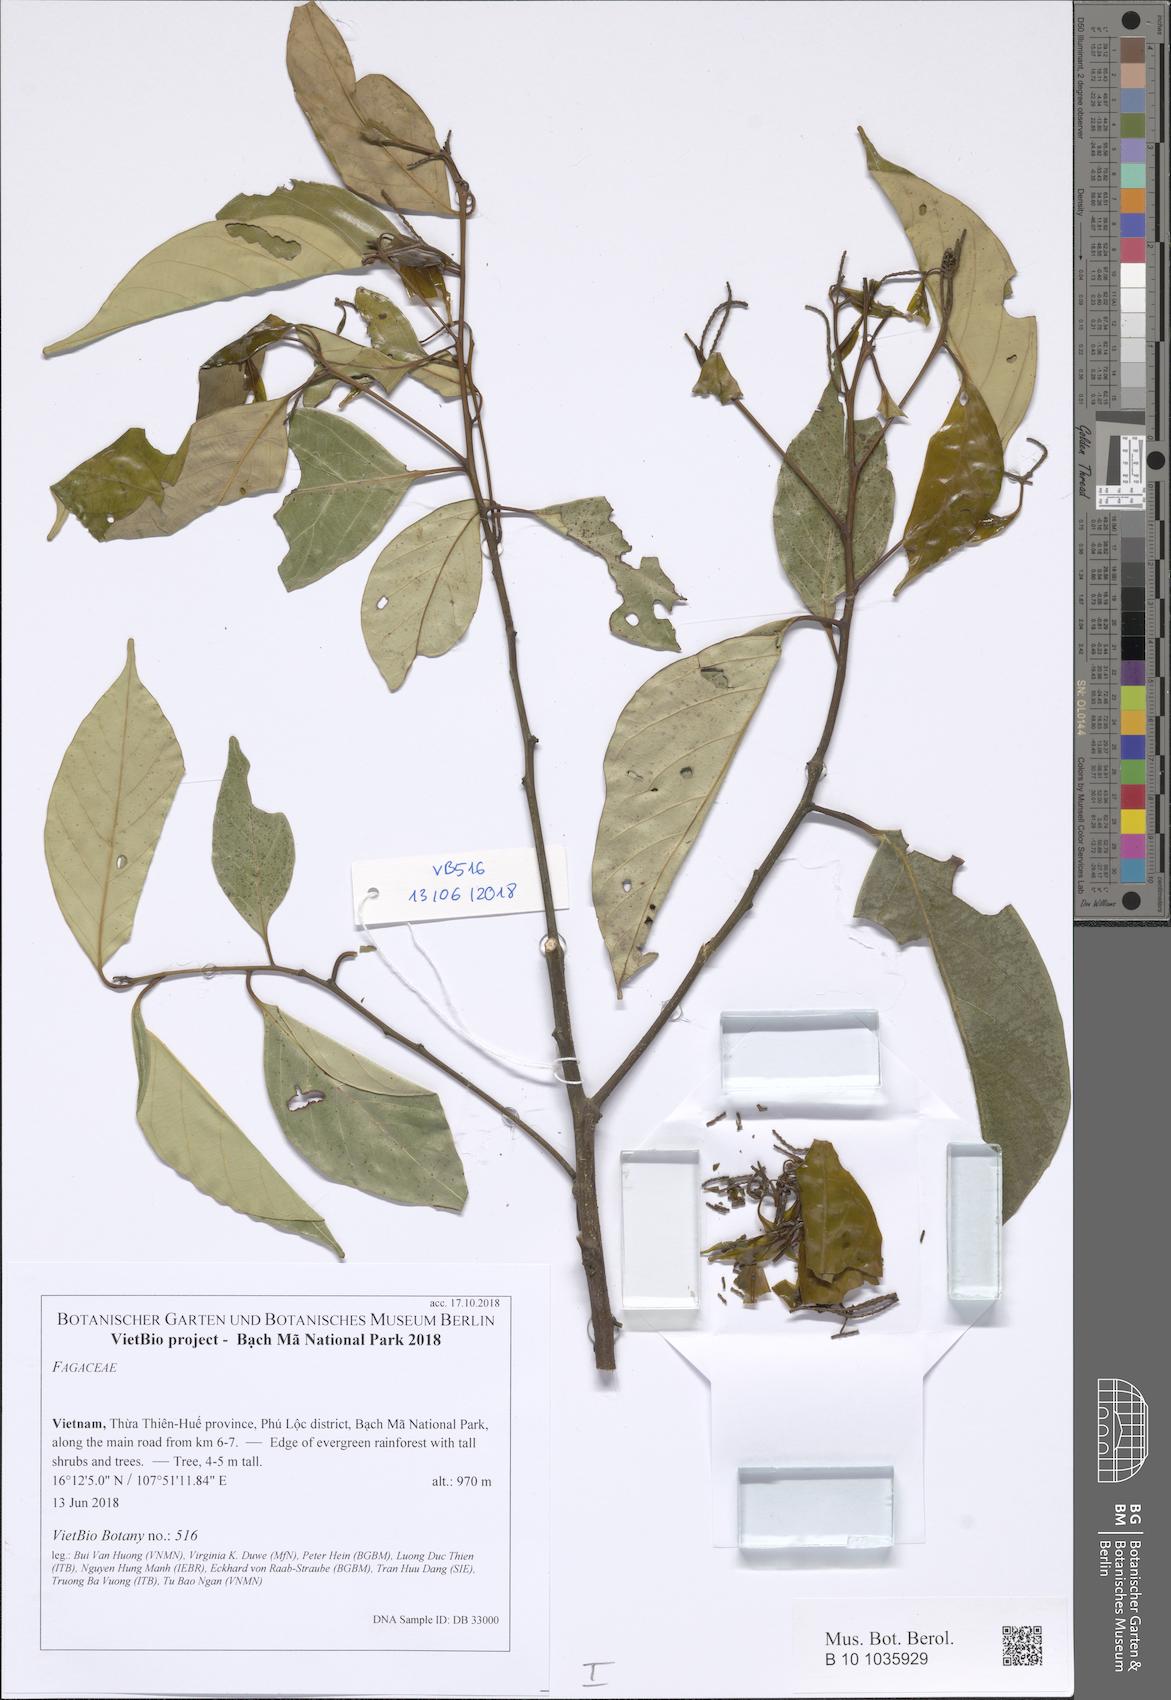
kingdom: Plantae
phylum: Tracheophyta
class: Magnoliopsida
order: Fagales
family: Fagaceae
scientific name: Fagaceae
